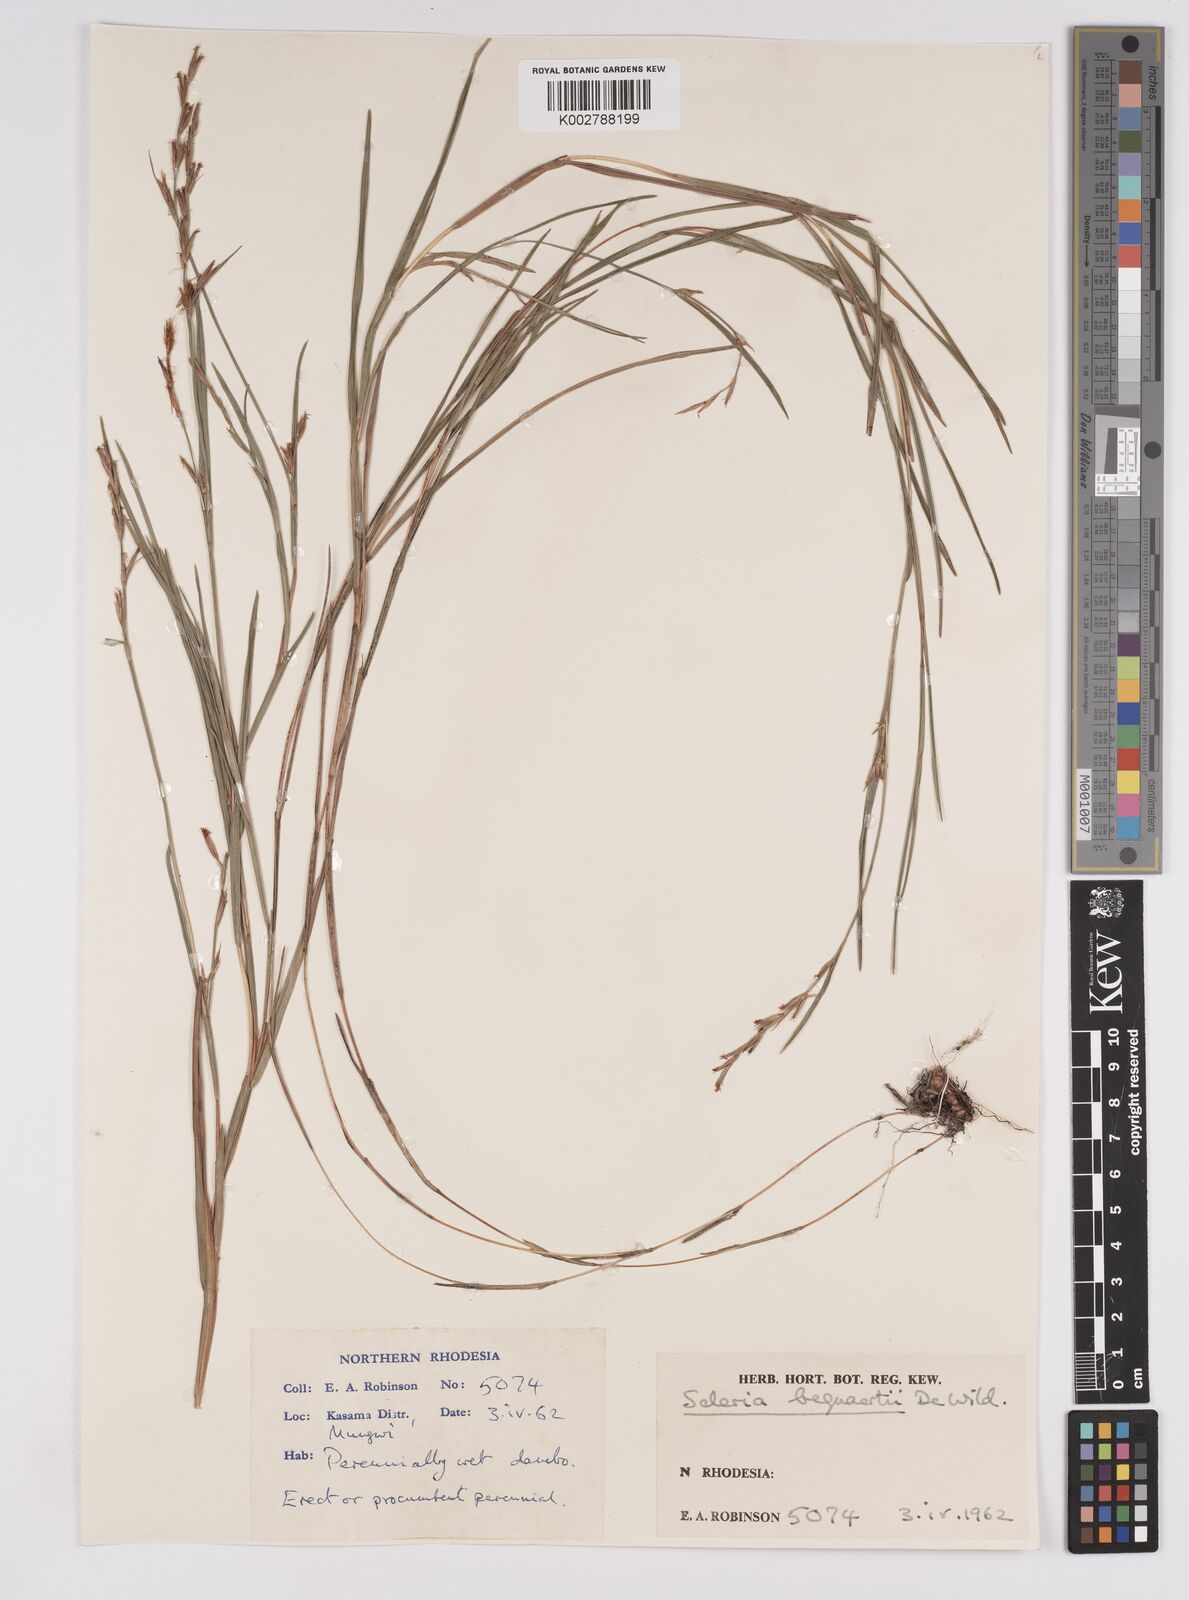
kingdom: Plantae
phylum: Tracheophyta
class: Liliopsida
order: Poales
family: Cyperaceae
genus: Scleria
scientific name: Scleria bequaertii
